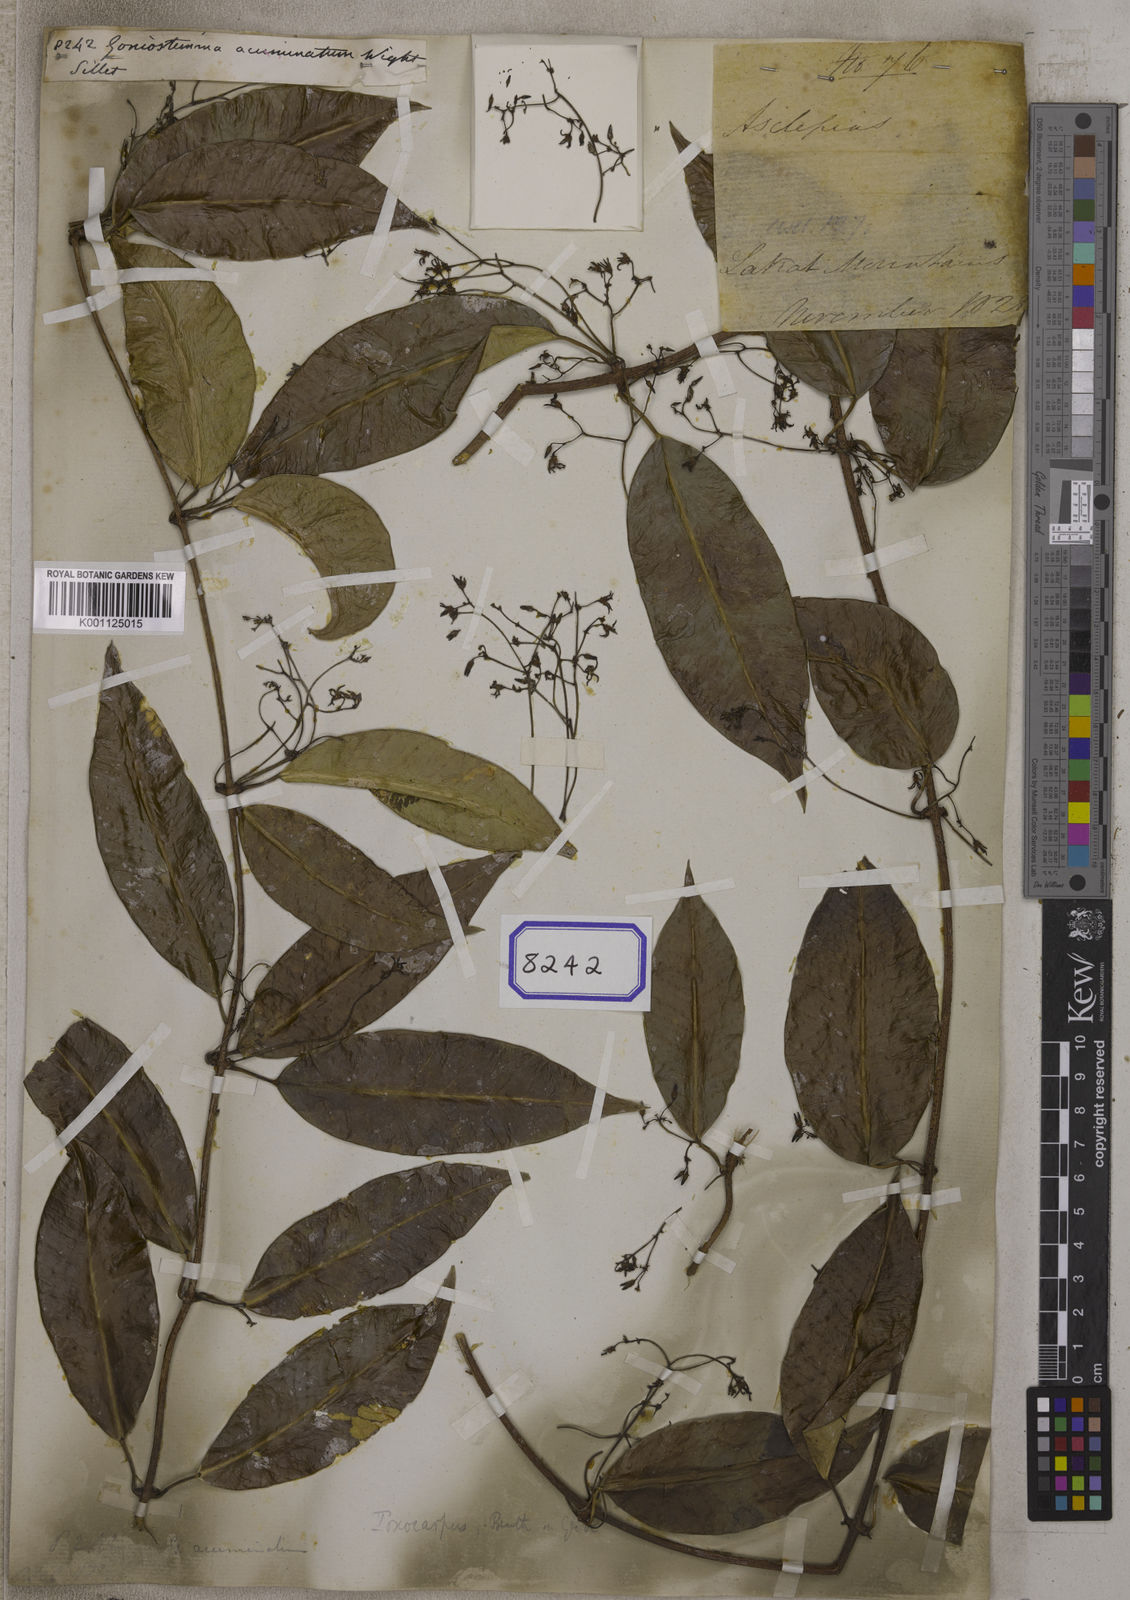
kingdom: Plantae
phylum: Tracheophyta
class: Magnoliopsida
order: Gentianales
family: Apocynaceae
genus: Goniostemma
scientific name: Goniostemma acuminatum
